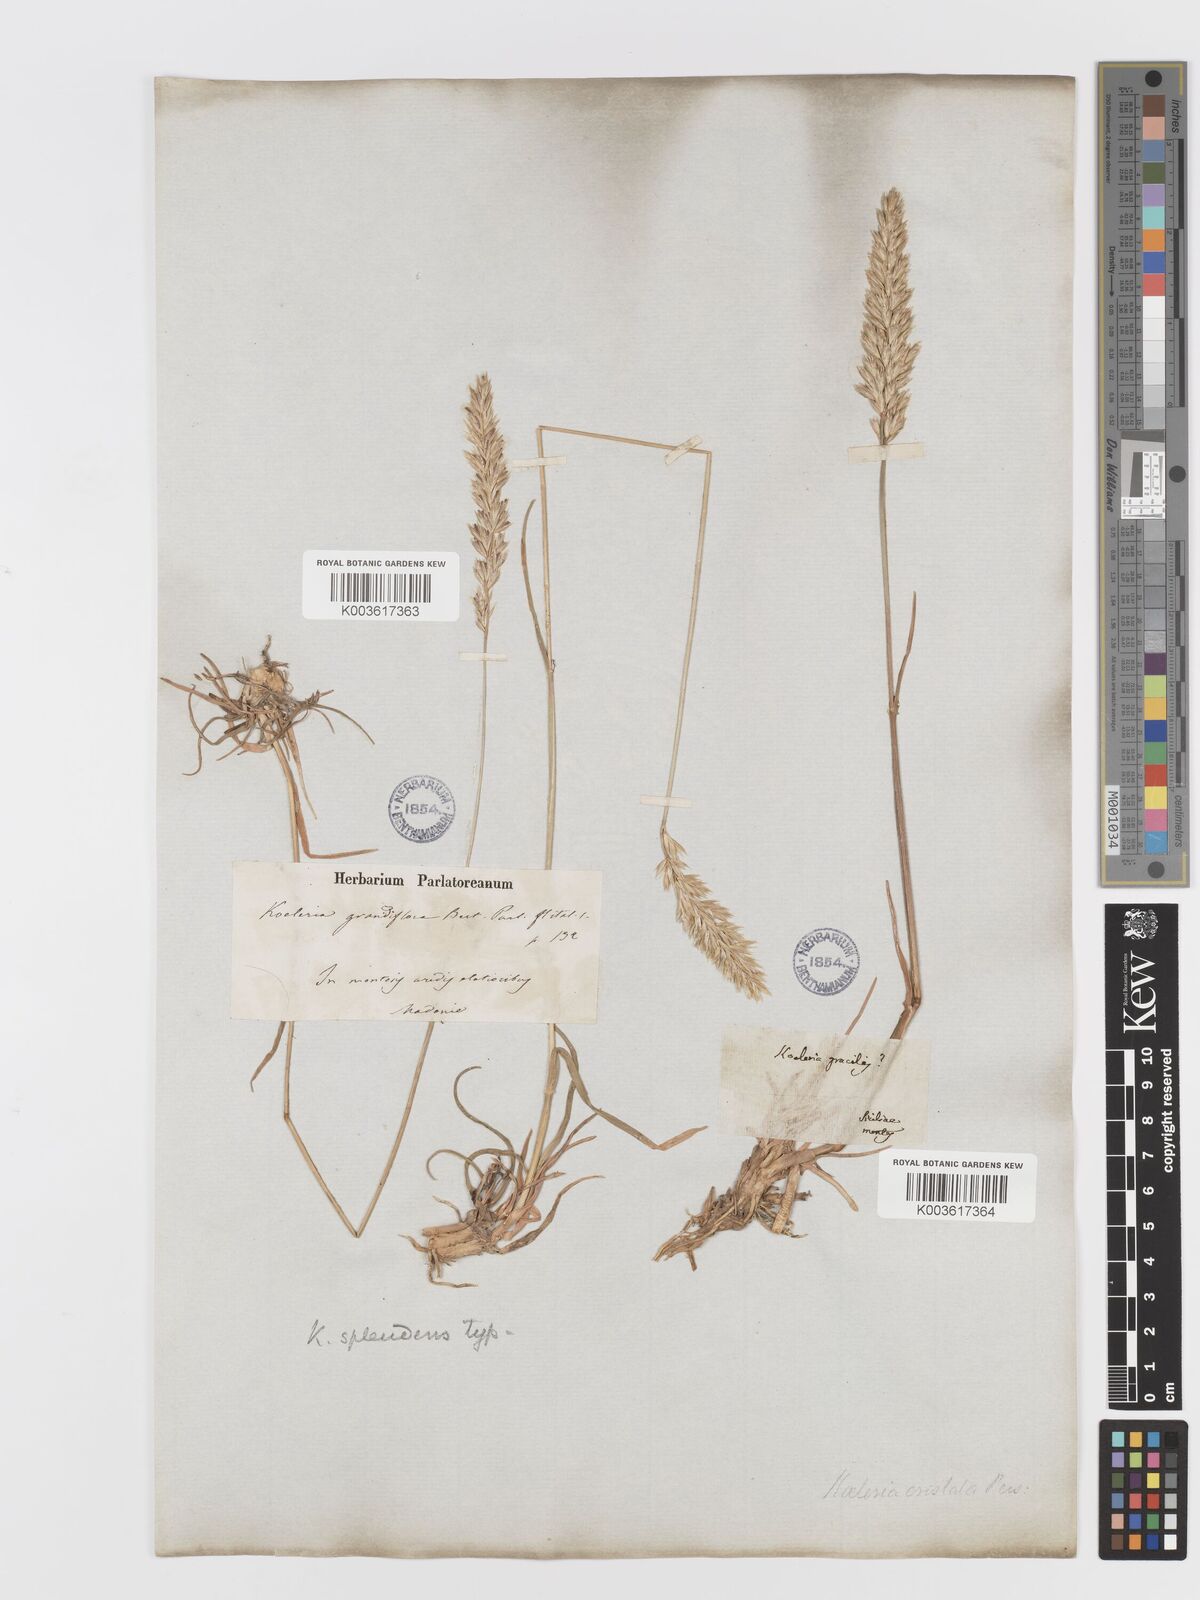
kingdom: Plantae
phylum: Tracheophyta
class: Liliopsida
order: Poales
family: Poaceae
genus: Koeleria
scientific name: Koeleria splendens
